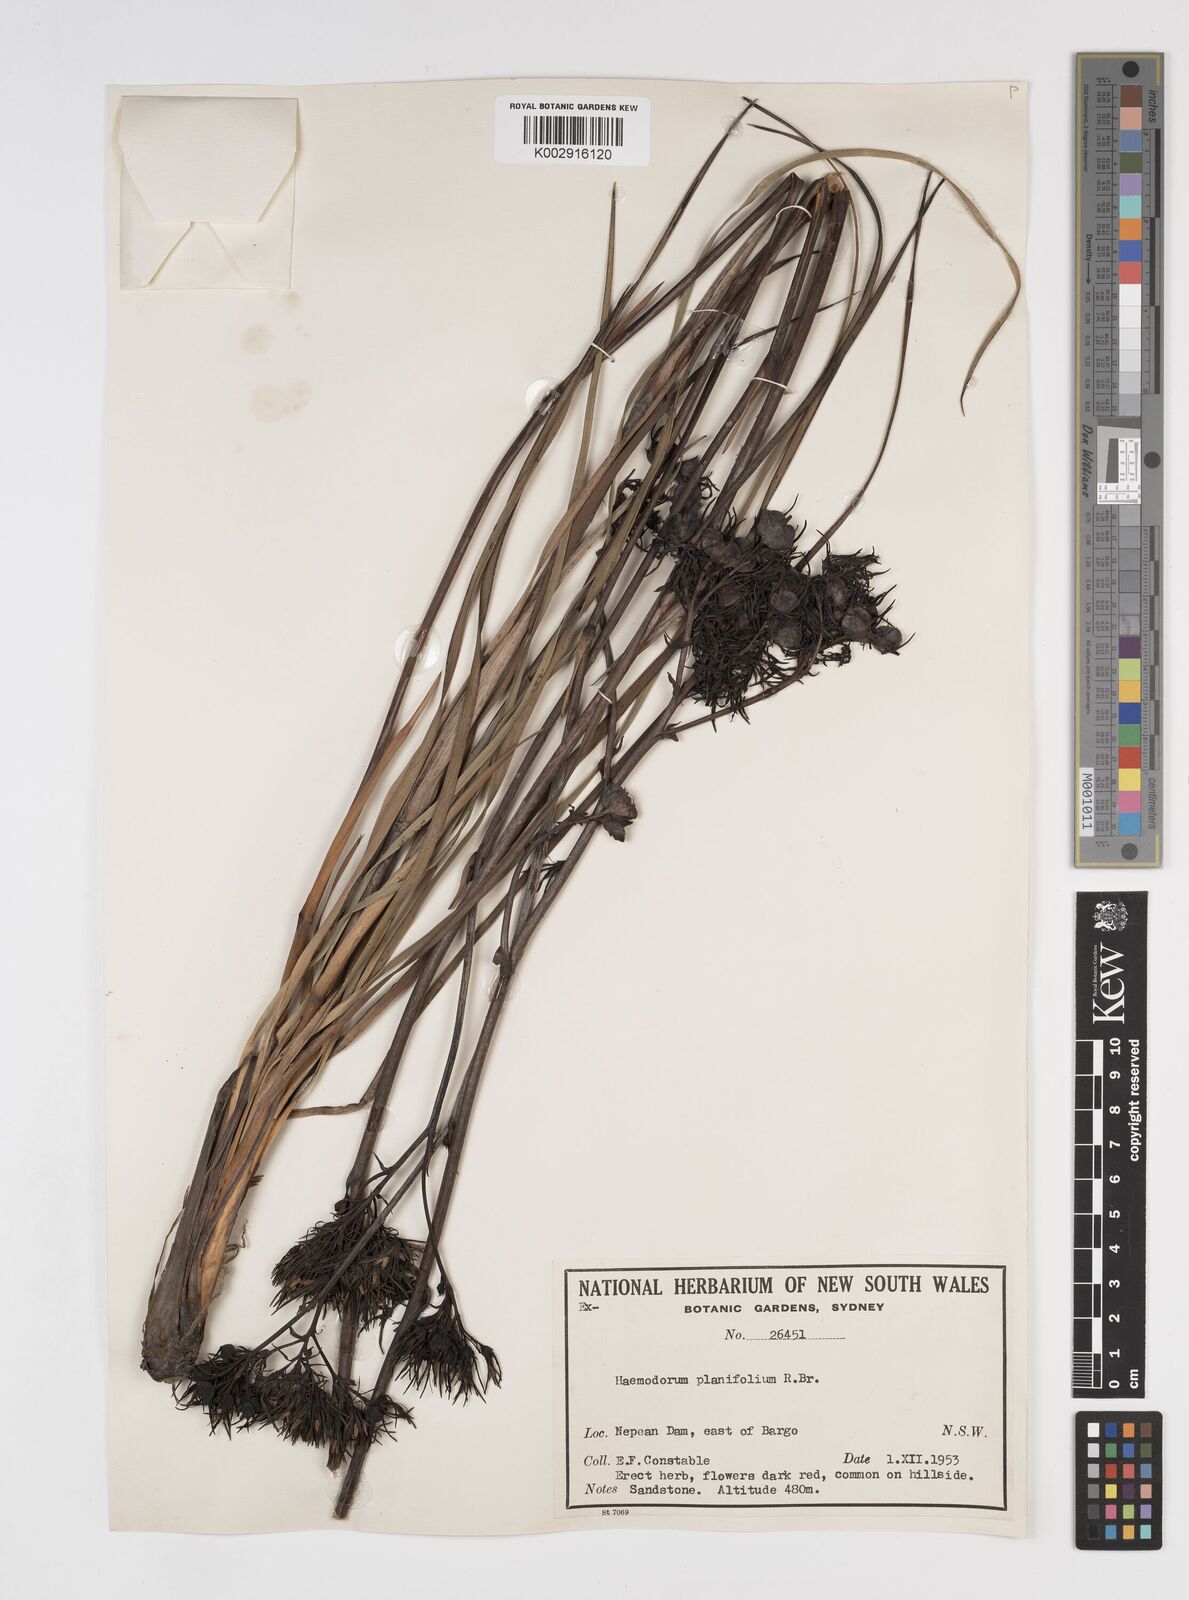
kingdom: Plantae
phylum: Tracheophyta
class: Liliopsida
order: Commelinales
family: Haemodoraceae
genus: Haemodorum
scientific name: Haemodorum planifolium
